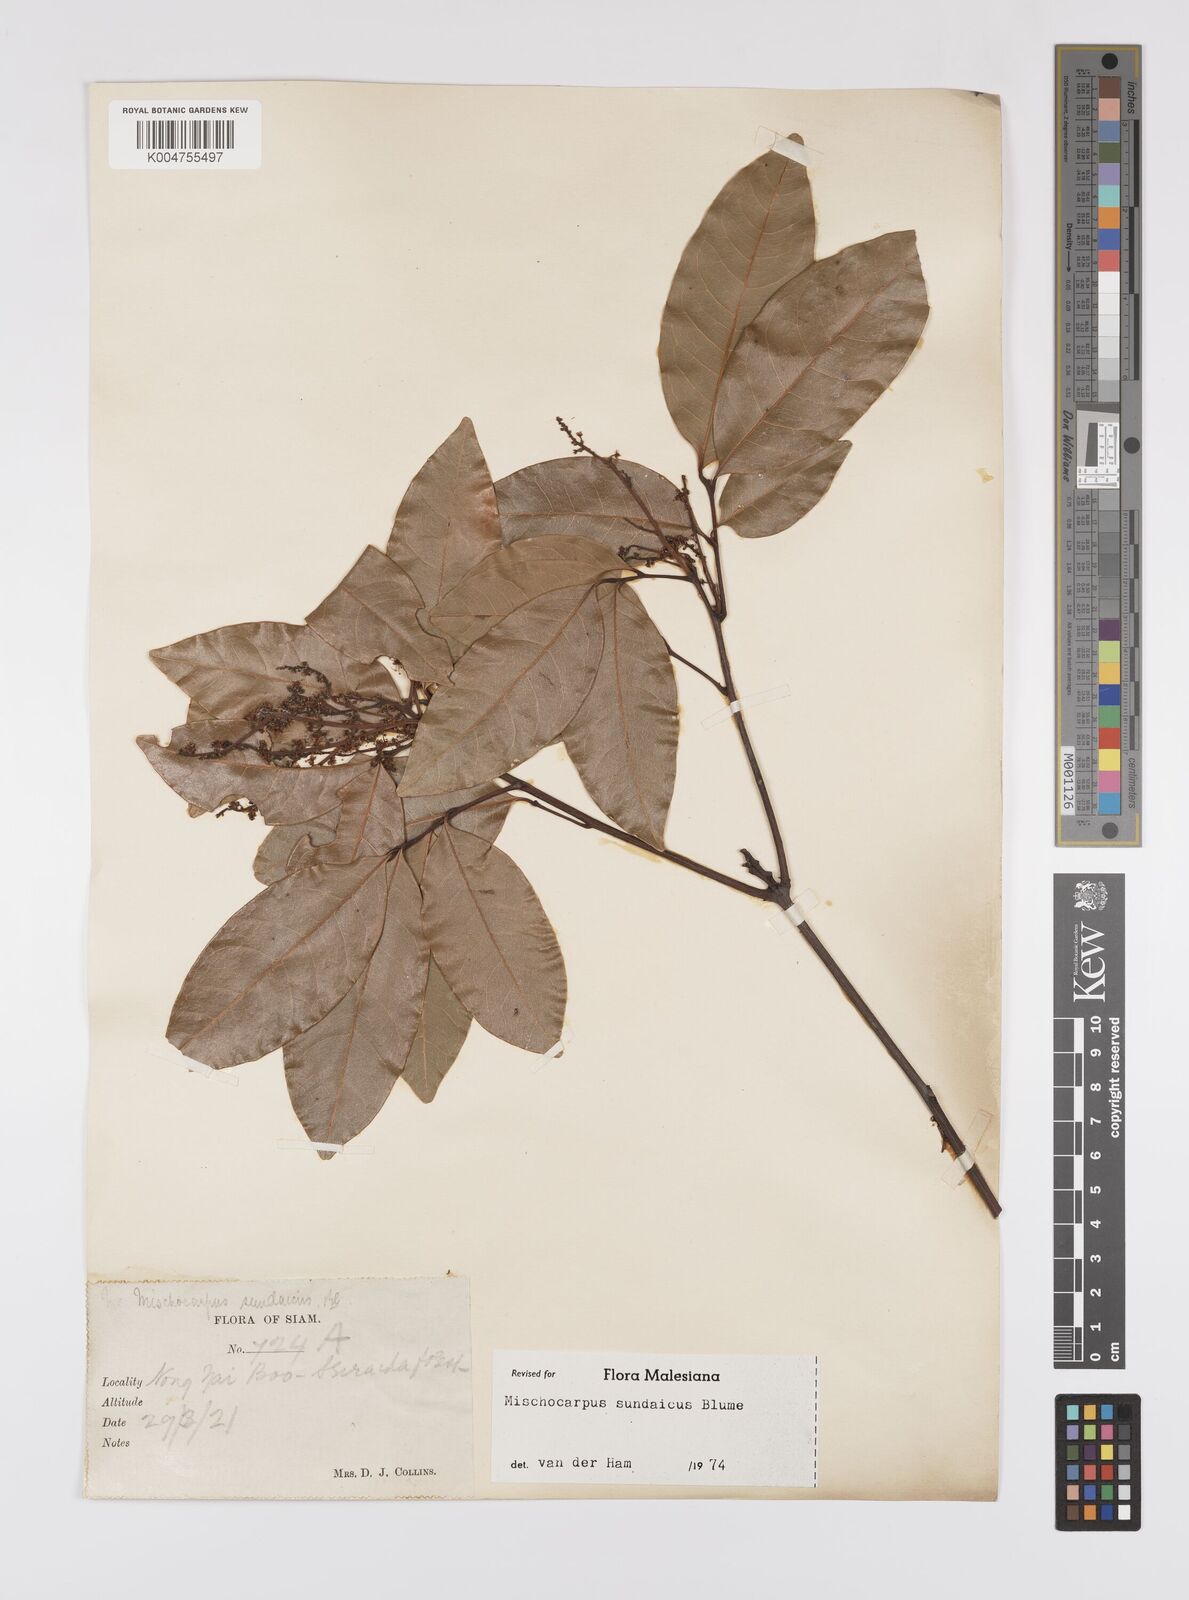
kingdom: Plantae
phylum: Tracheophyta
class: Magnoliopsida
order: Sapindales
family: Sapindaceae
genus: Mischocarpus
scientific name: Mischocarpus sundaicus
